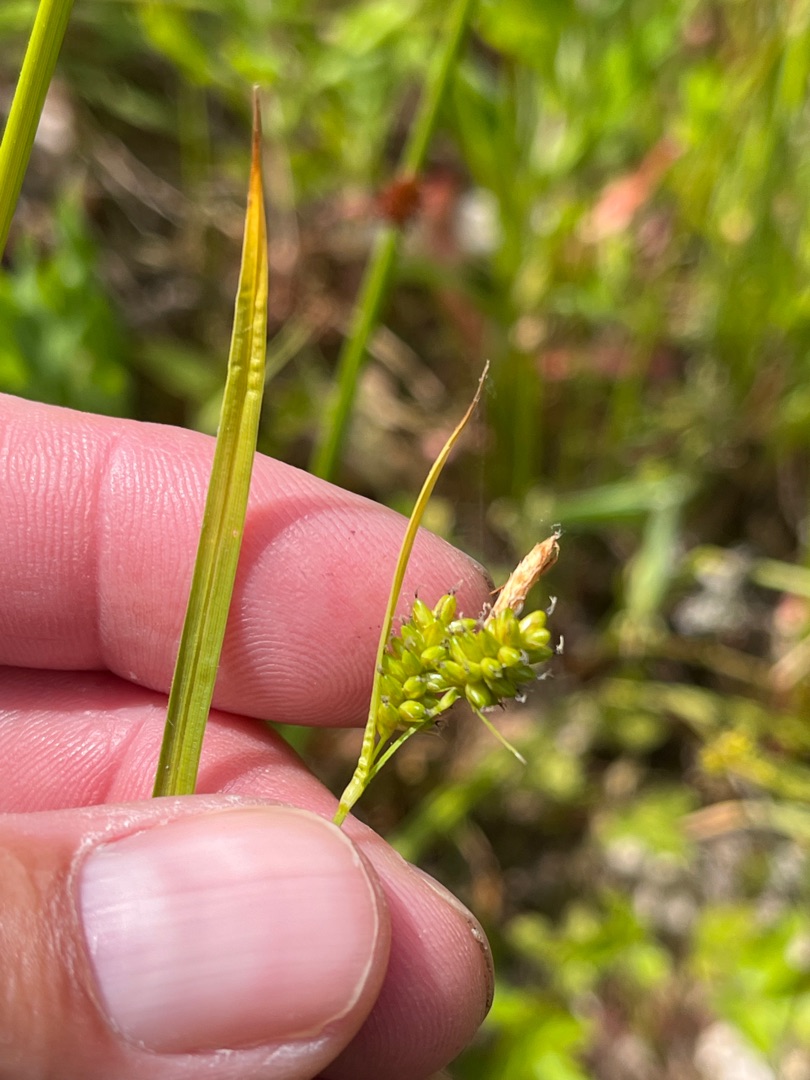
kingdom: Plantae
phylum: Tracheophyta
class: Liliopsida
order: Poales
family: Cyperaceae
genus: Carex
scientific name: Carex pallescens
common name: Bleg star
